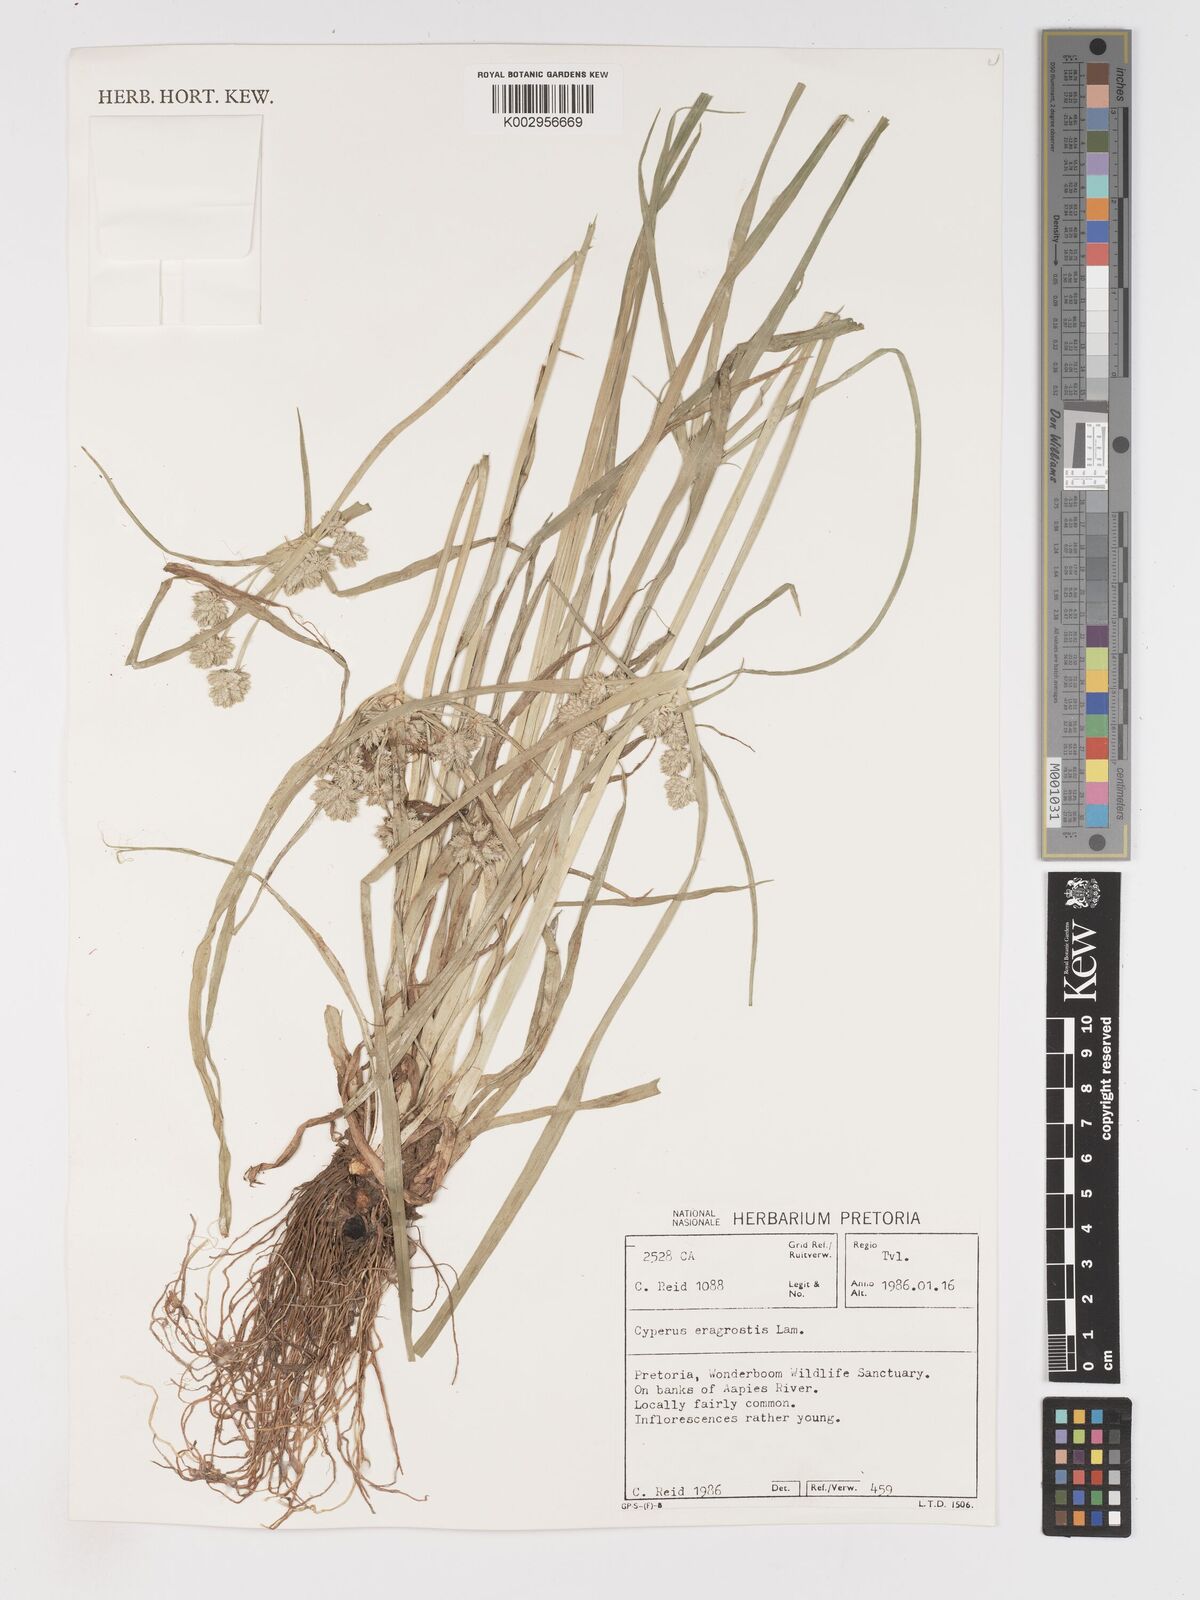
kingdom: Plantae
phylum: Tracheophyta
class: Liliopsida
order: Poales
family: Cyperaceae
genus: Cyperus
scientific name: Cyperus eragrostis
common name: Tall flatsedge
